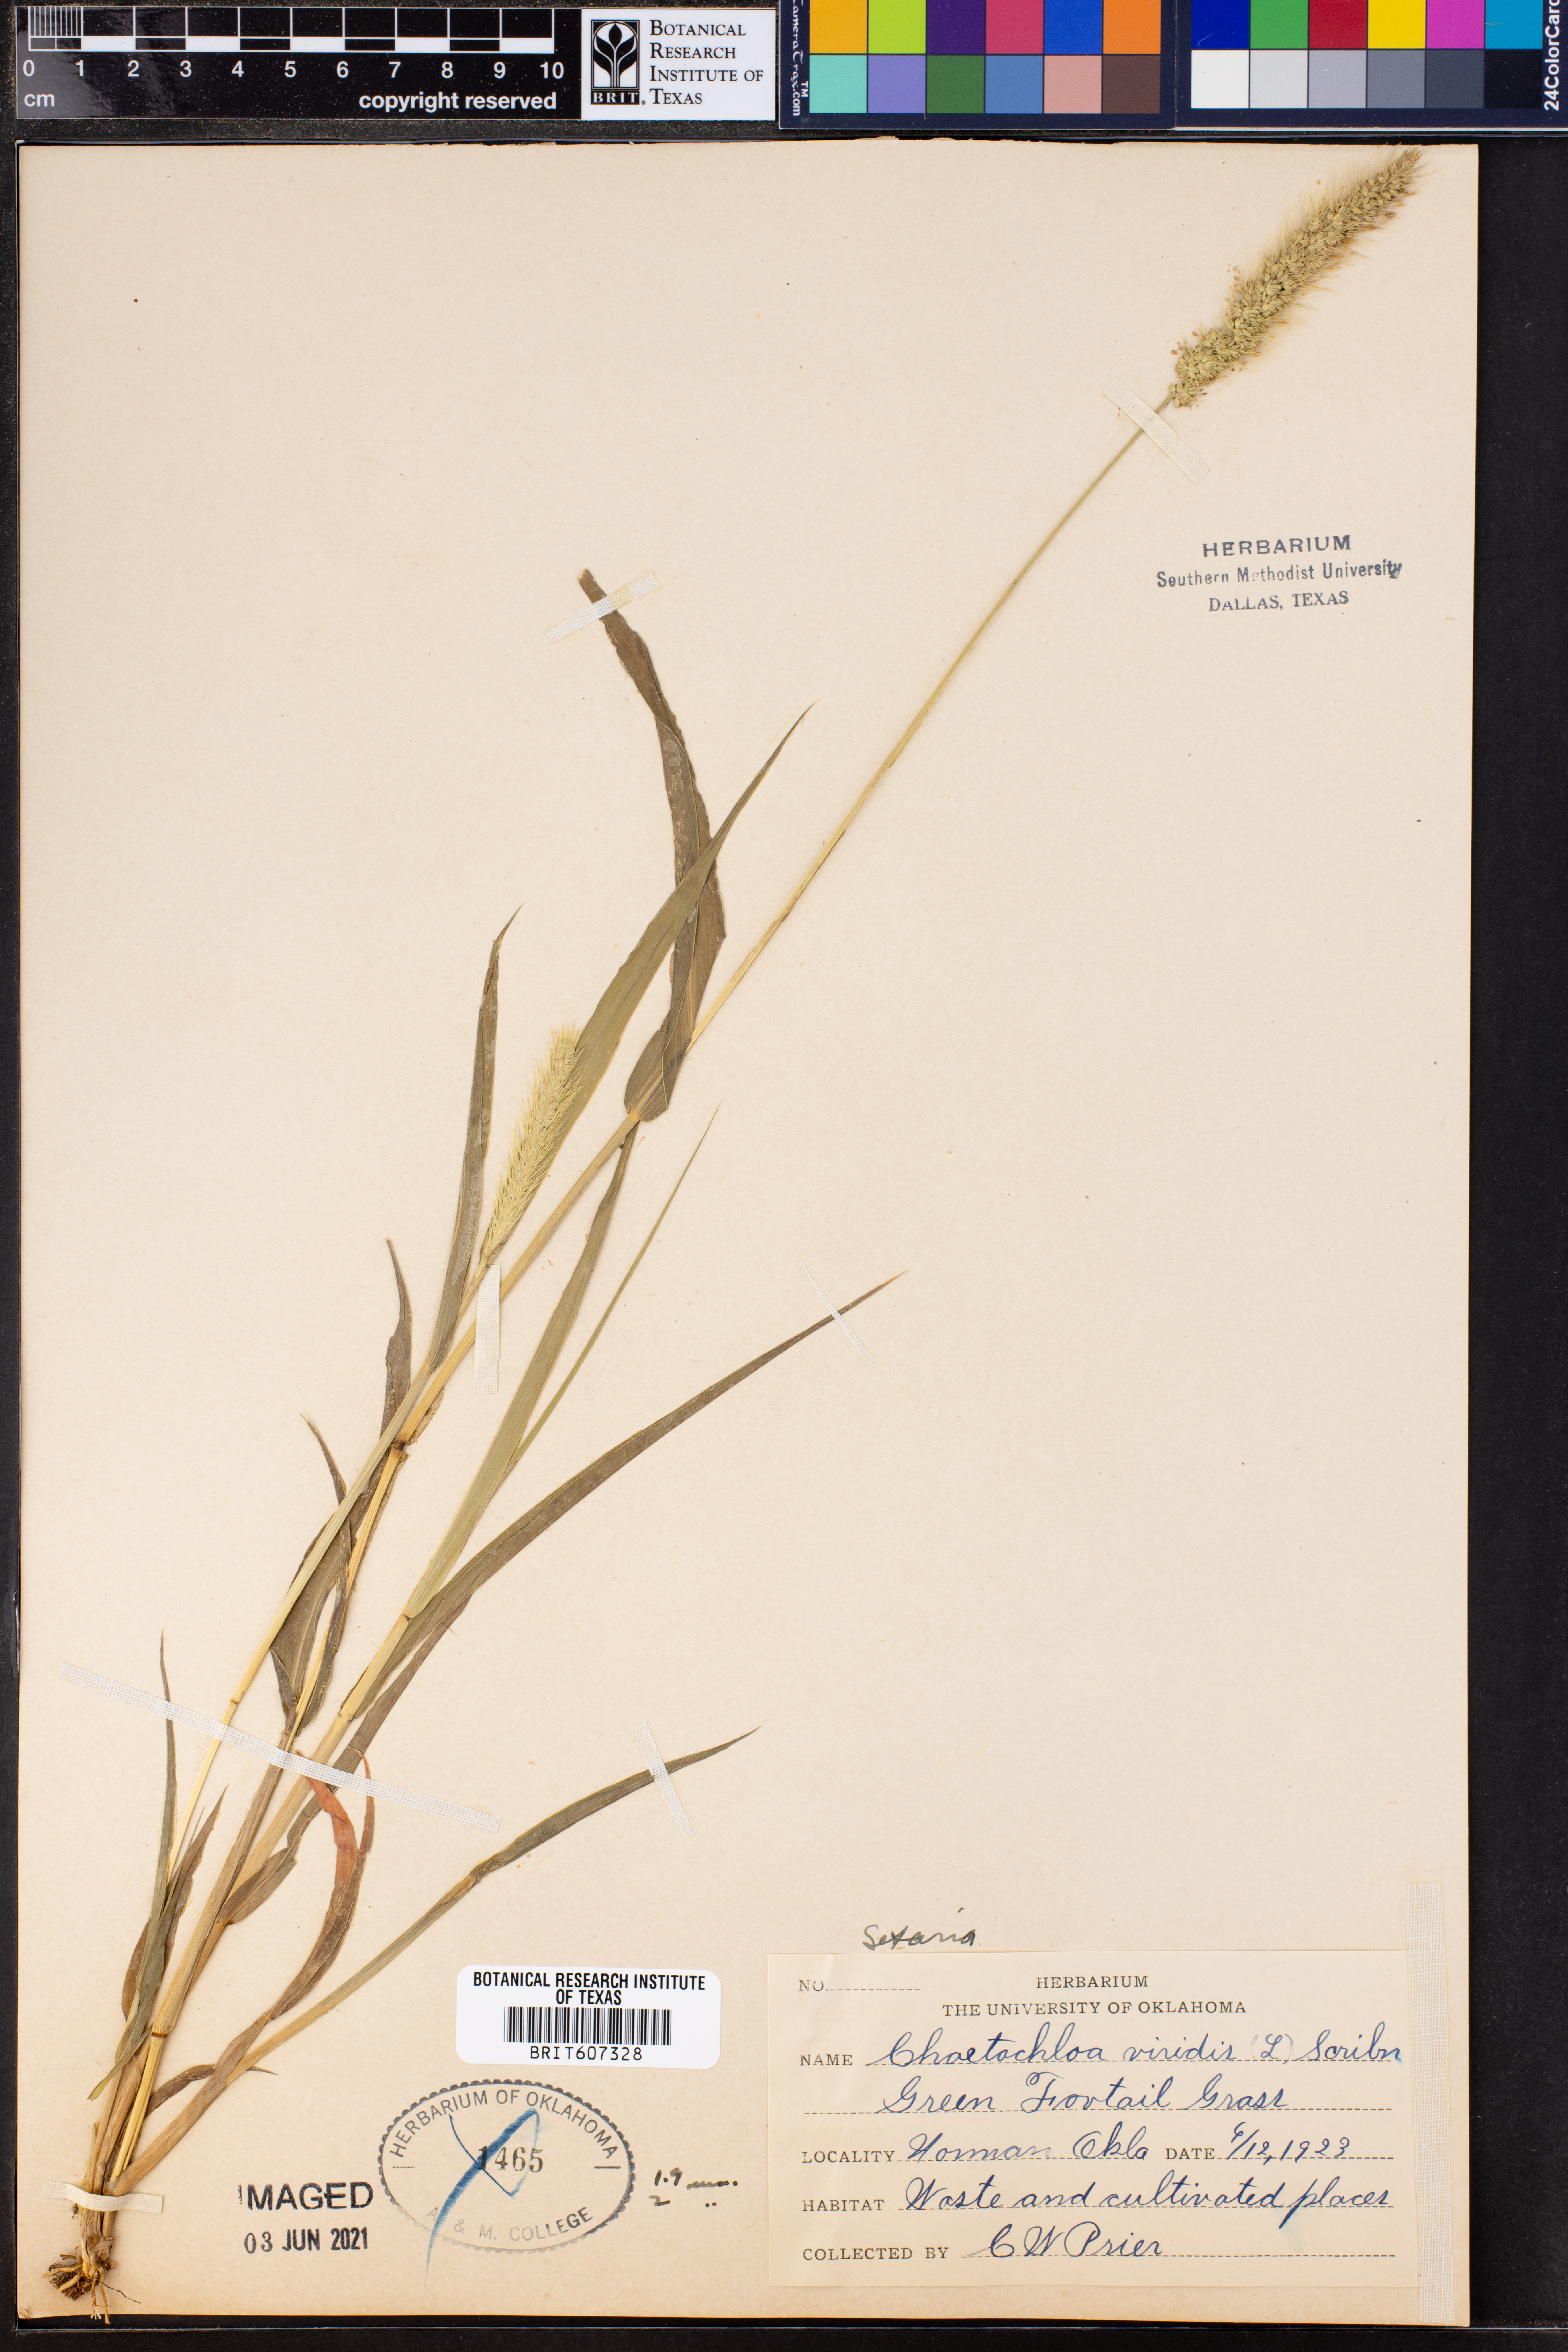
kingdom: Plantae
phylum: Tracheophyta
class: Liliopsida
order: Poales
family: Poaceae
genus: Setaria
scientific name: Setaria viridis
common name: Green bristlegrass
